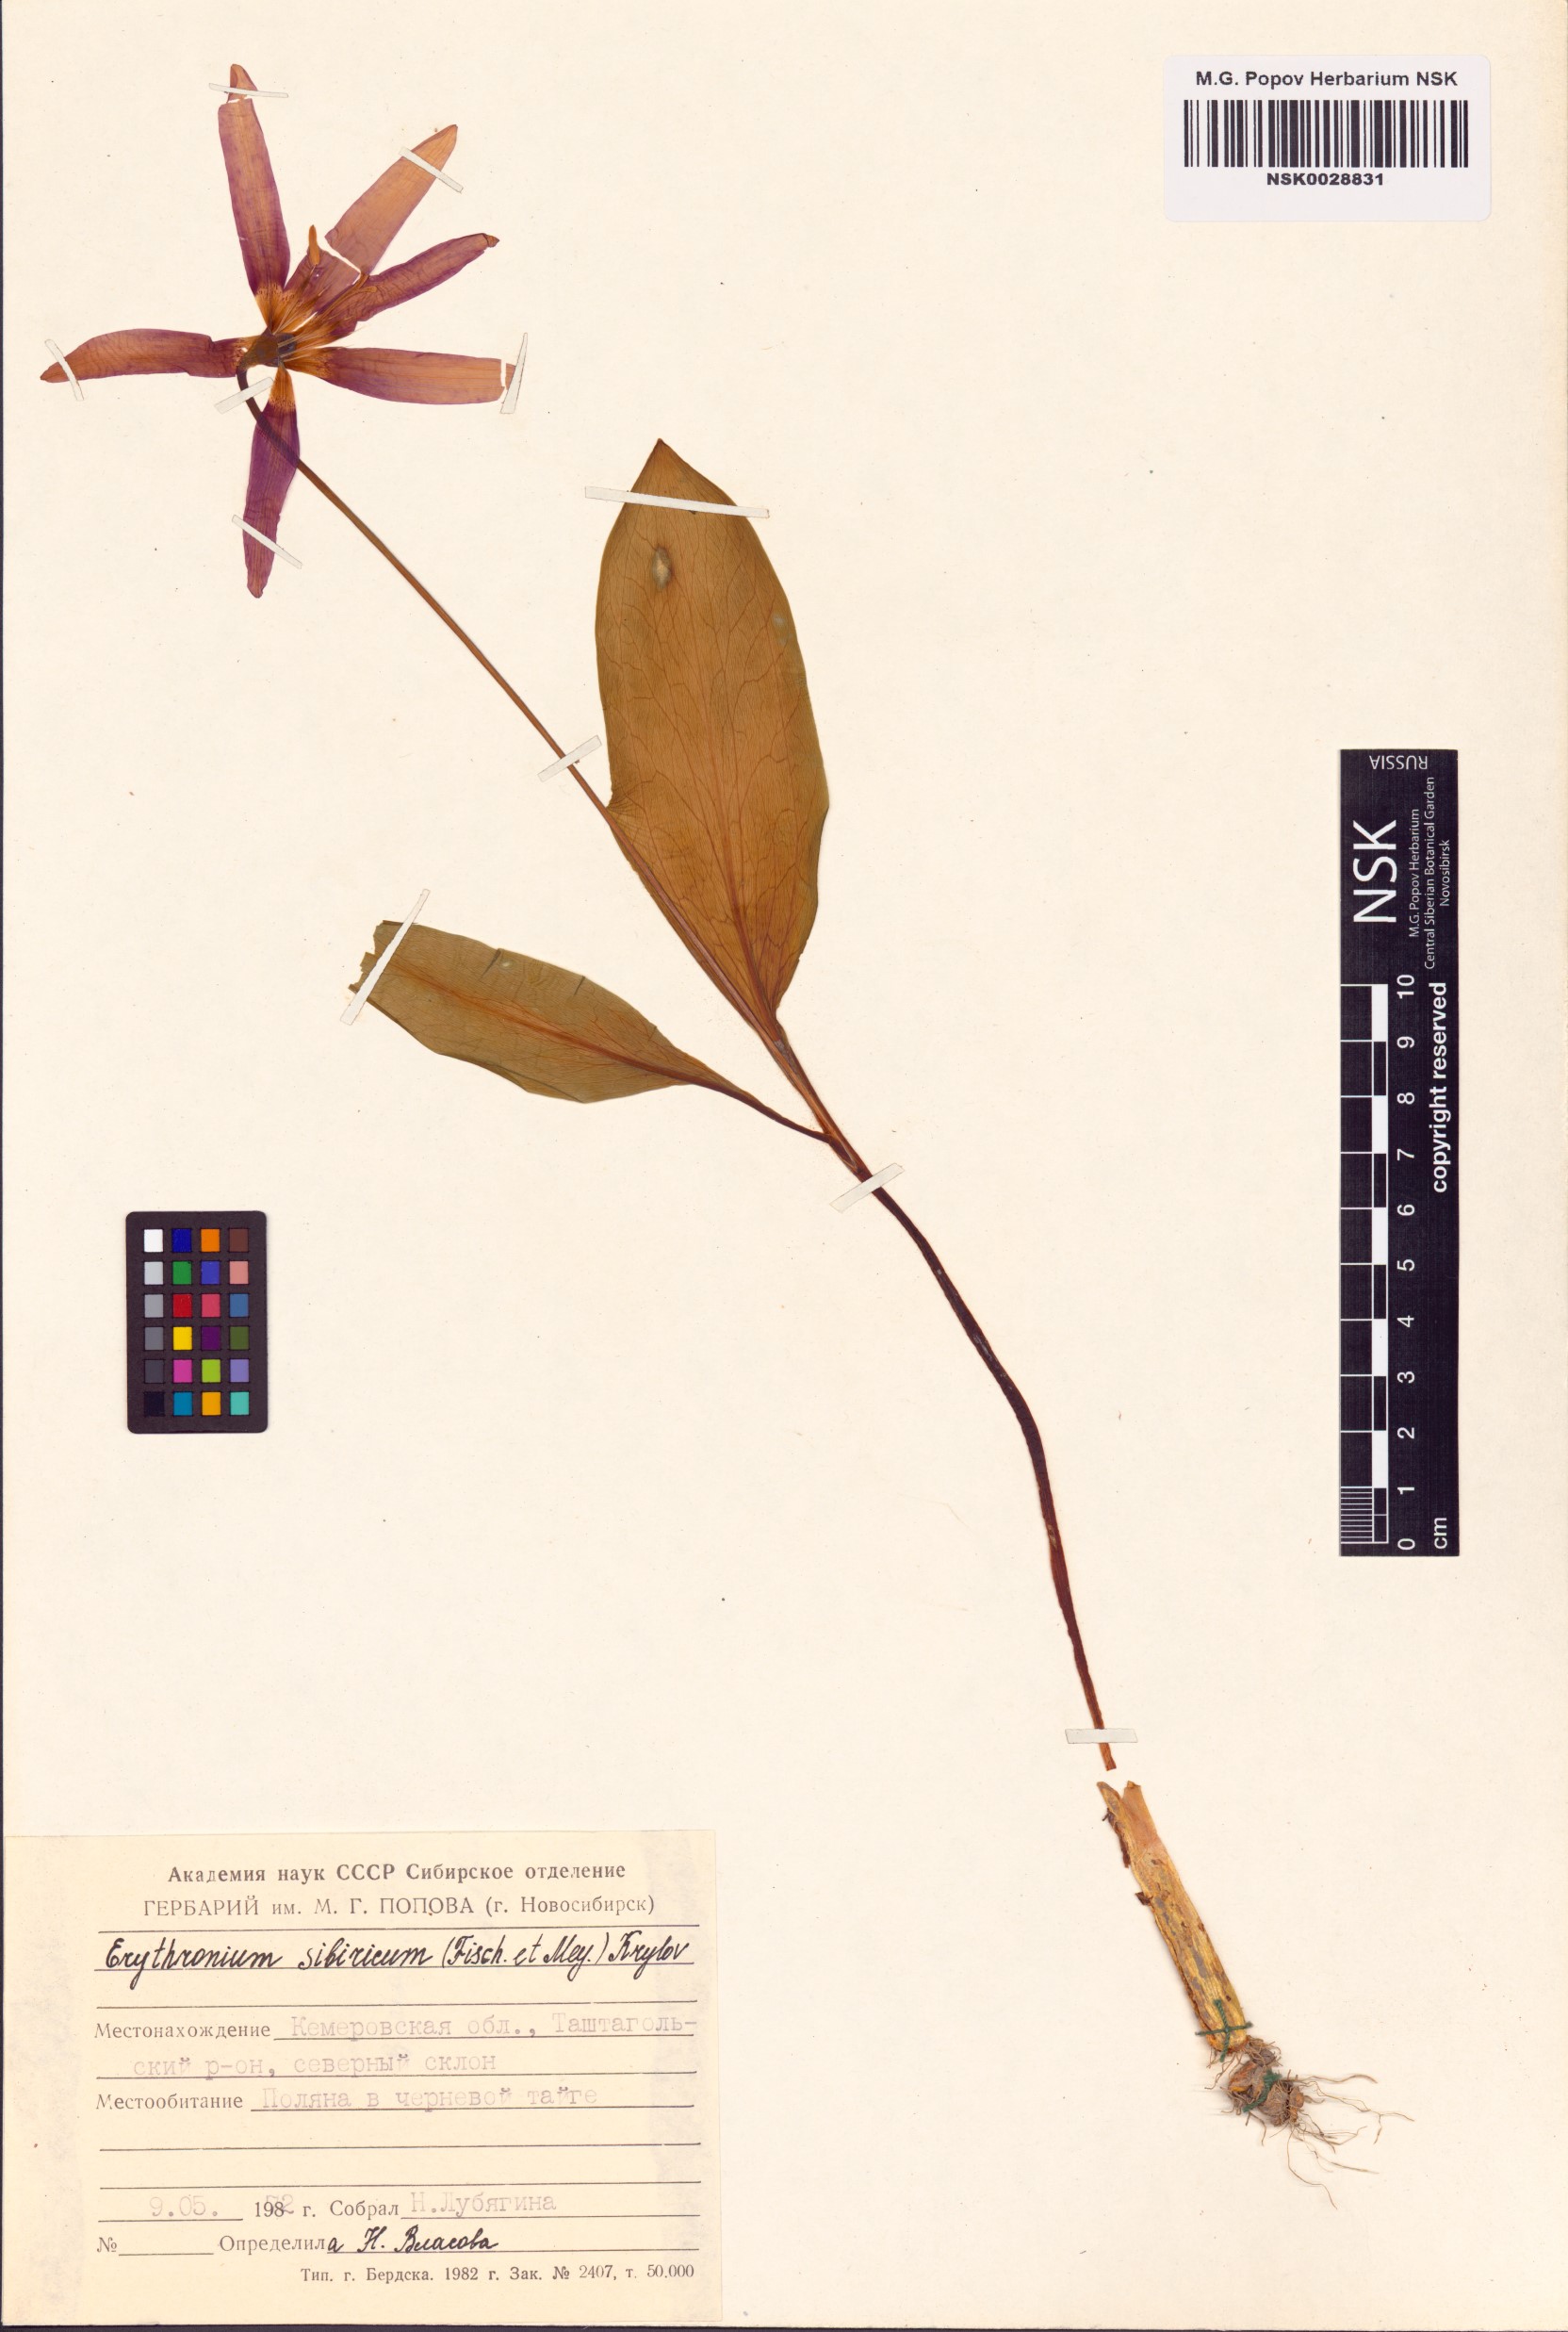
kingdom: Plantae
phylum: Tracheophyta
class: Liliopsida
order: Liliales
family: Liliaceae
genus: Erythronium
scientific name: Erythronium sibiricum
